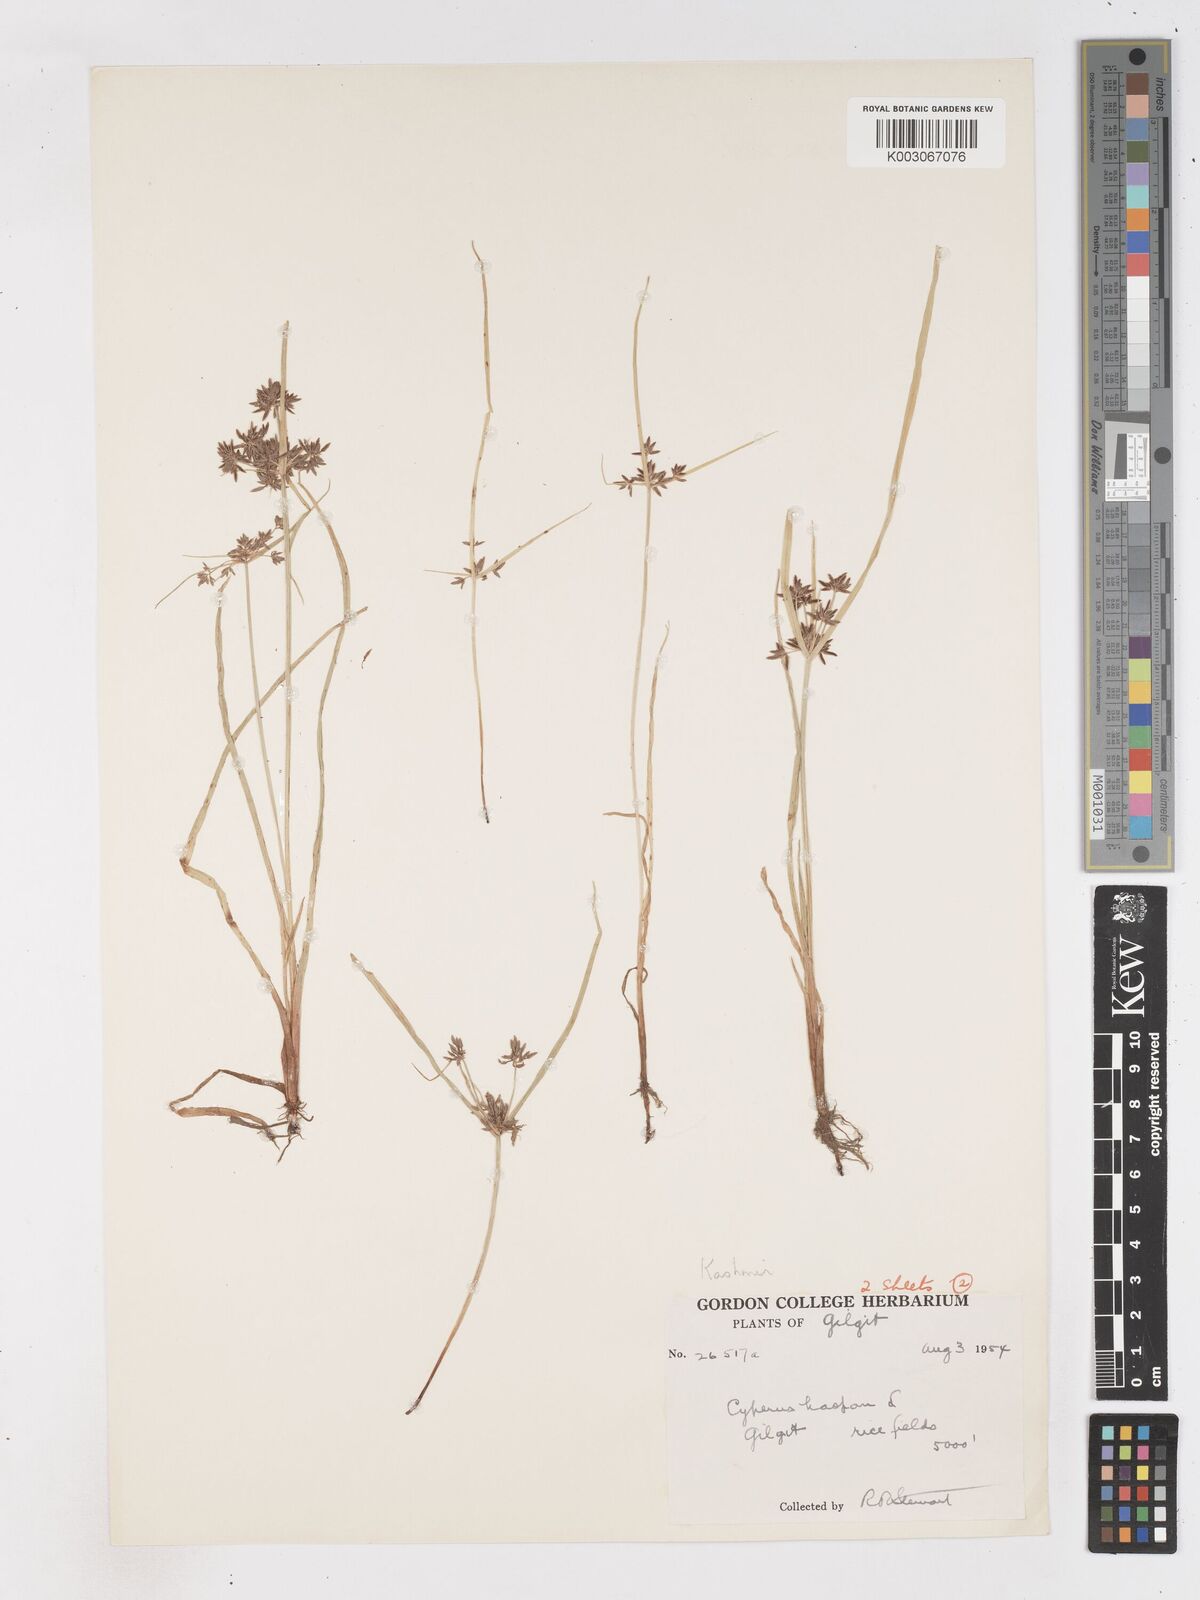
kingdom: Plantae
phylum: Tracheophyta
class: Liliopsida
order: Poales
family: Cyperaceae
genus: Cyperus
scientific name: Cyperus haspan
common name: Haspan flatsedge
